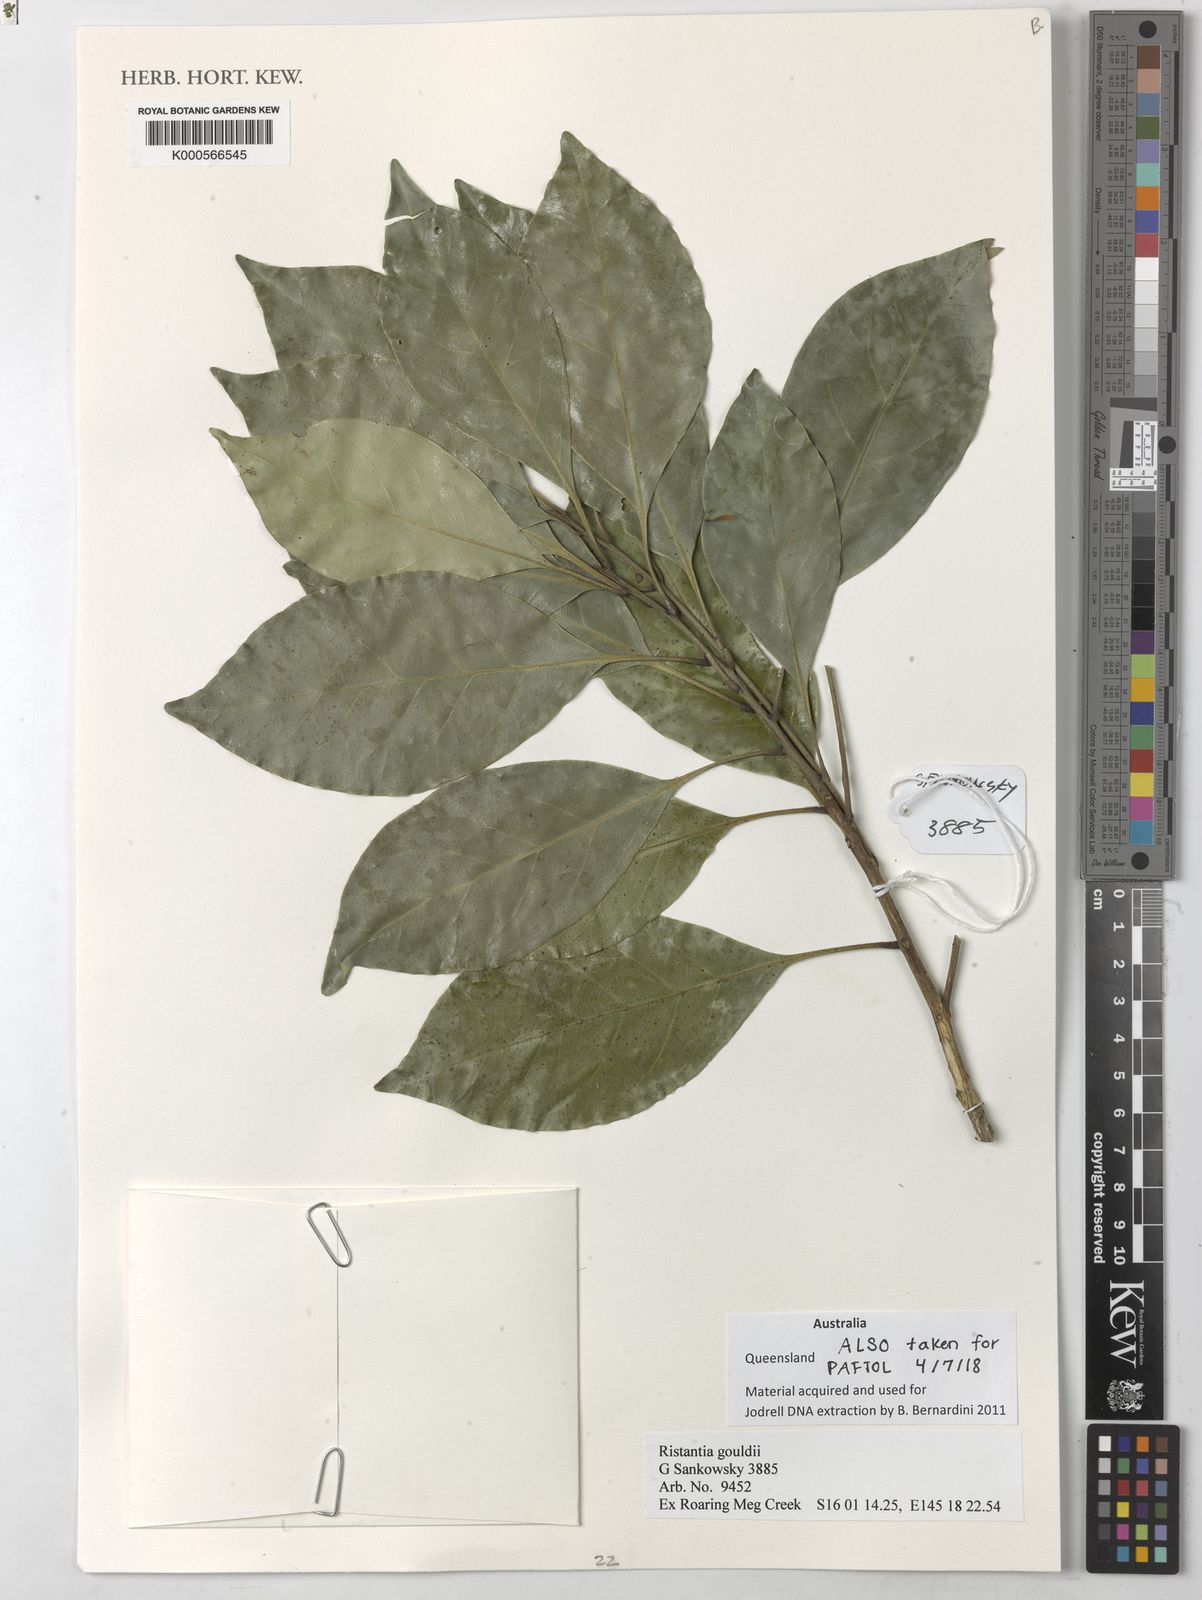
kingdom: Plantae
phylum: Tracheophyta
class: Magnoliopsida
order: Myrtales
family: Myrtaceae
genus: Ristantia
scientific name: Ristantia gouldii
